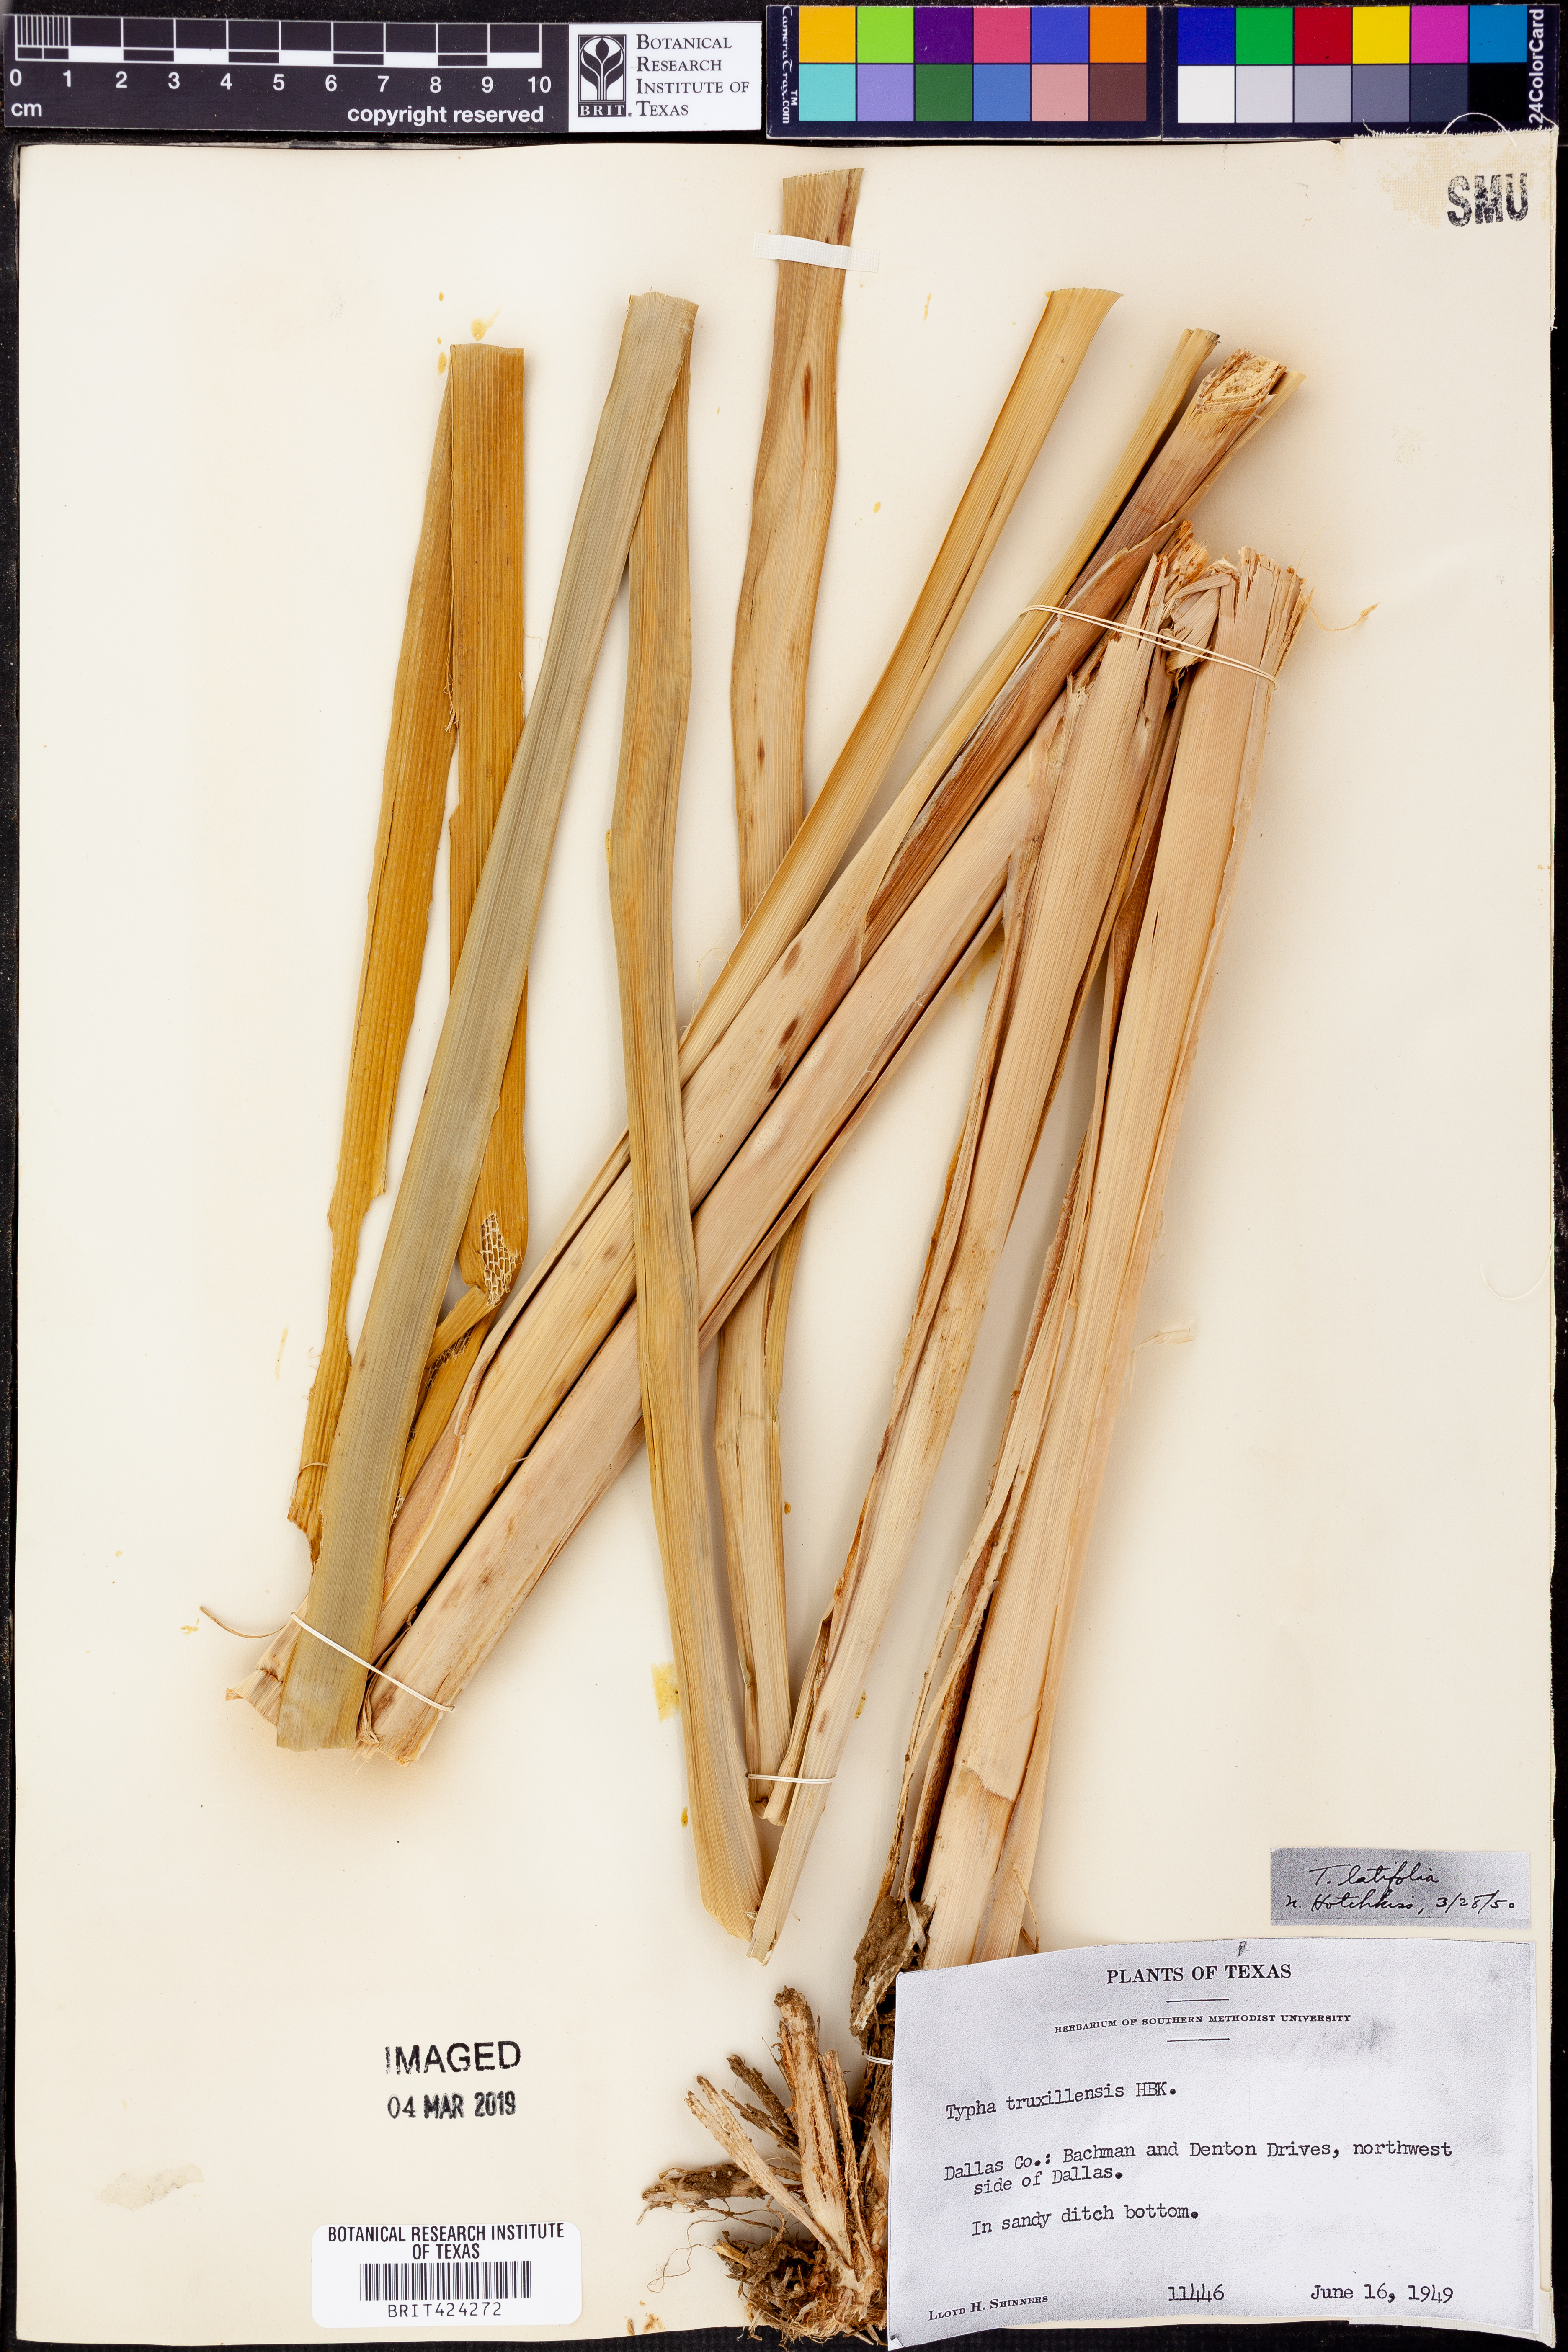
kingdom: Plantae
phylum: Tracheophyta
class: Liliopsida
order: Poales
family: Typhaceae
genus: Typha
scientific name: Typha latifolia
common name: Broadleaf cattail
